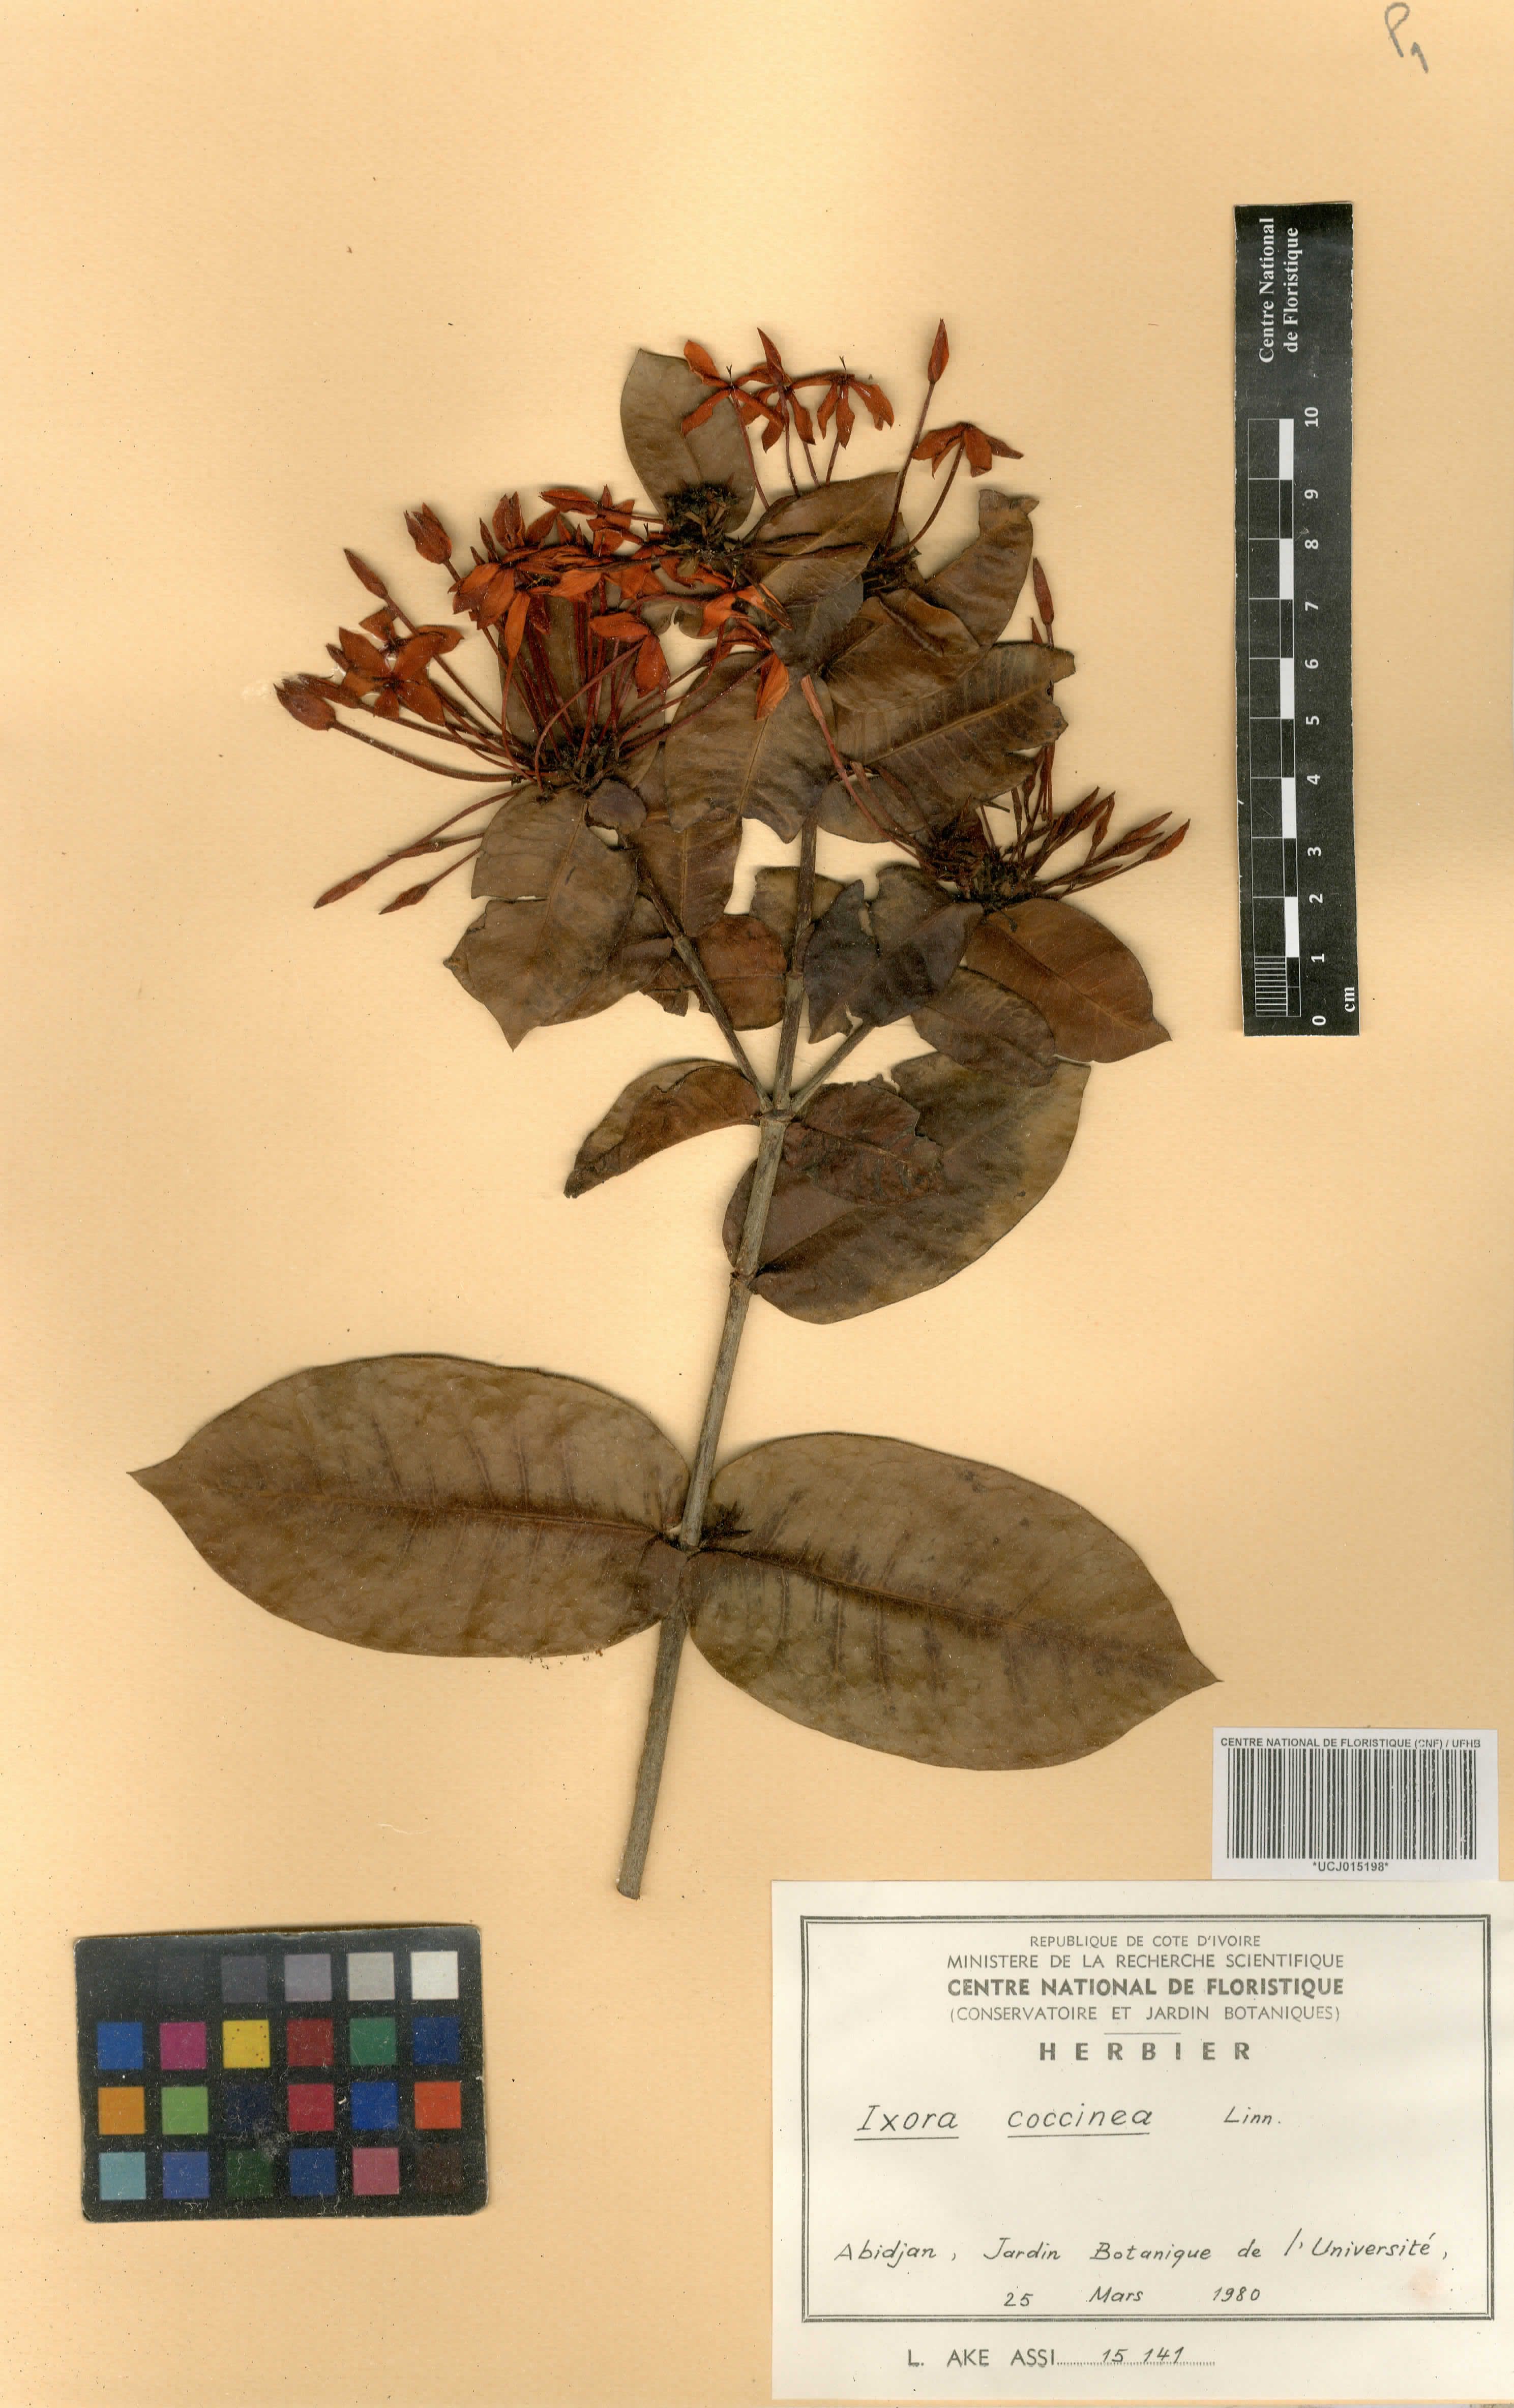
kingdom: Plantae
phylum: Tracheophyta
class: Magnoliopsida
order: Gentianales
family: Rubiaceae
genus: Ixora
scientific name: Ixora coccinea
